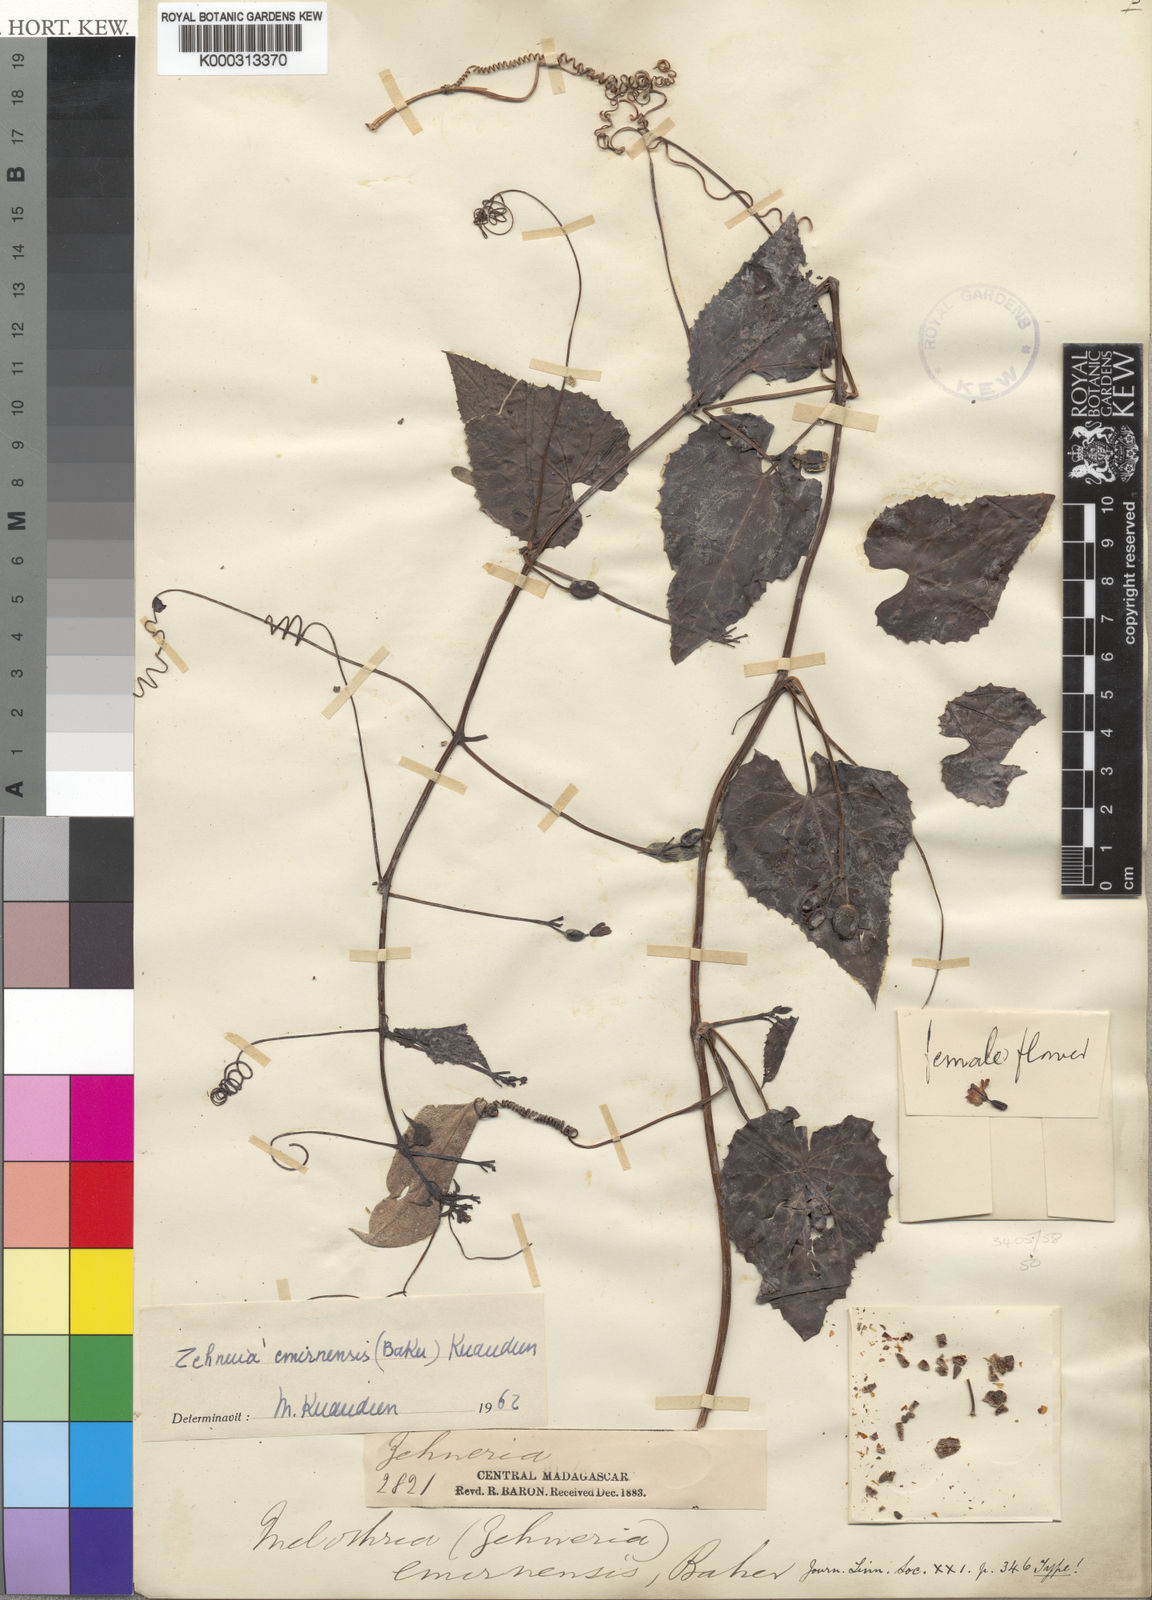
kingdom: Plantae
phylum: Tracheophyta
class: Magnoliopsida
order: Cucurbitales
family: Cucurbitaceae
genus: Zehneria
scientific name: Zehneria emirnensis
